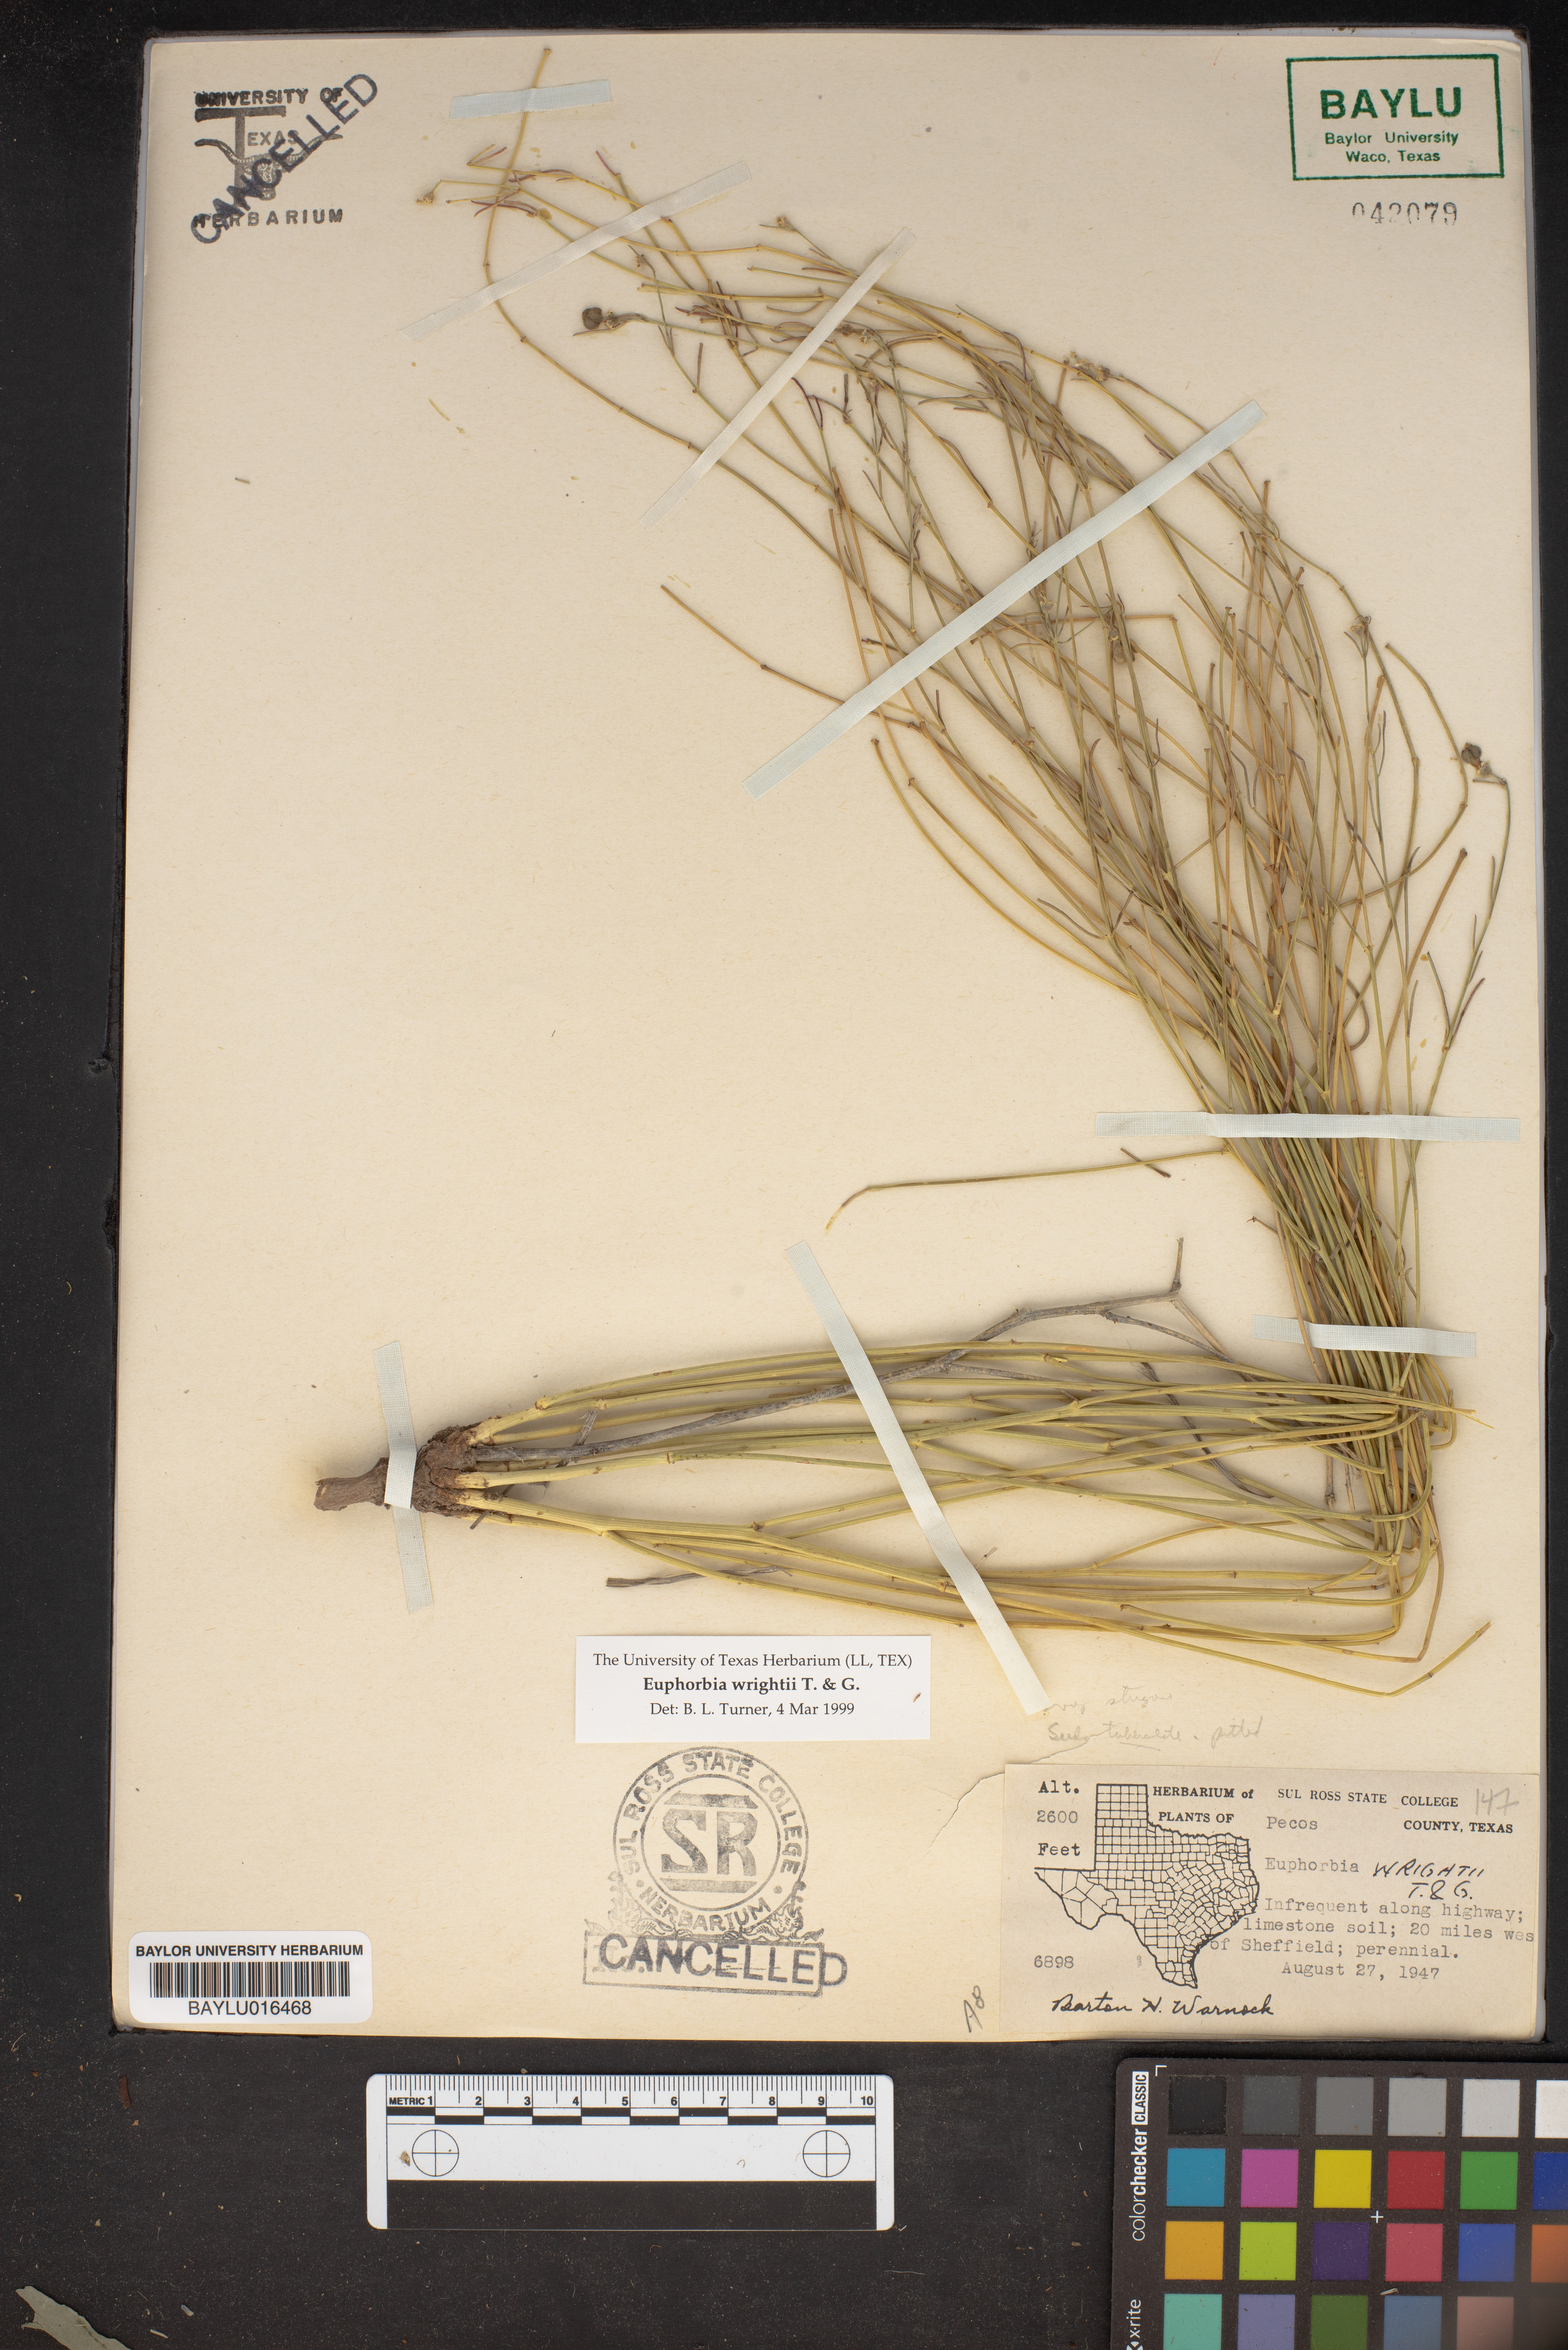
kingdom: Plantae
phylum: Tracheophyta
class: Magnoliopsida
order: Malpighiales
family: Euphorbiaceae
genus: Euphorbia
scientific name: Euphorbia wrightii
